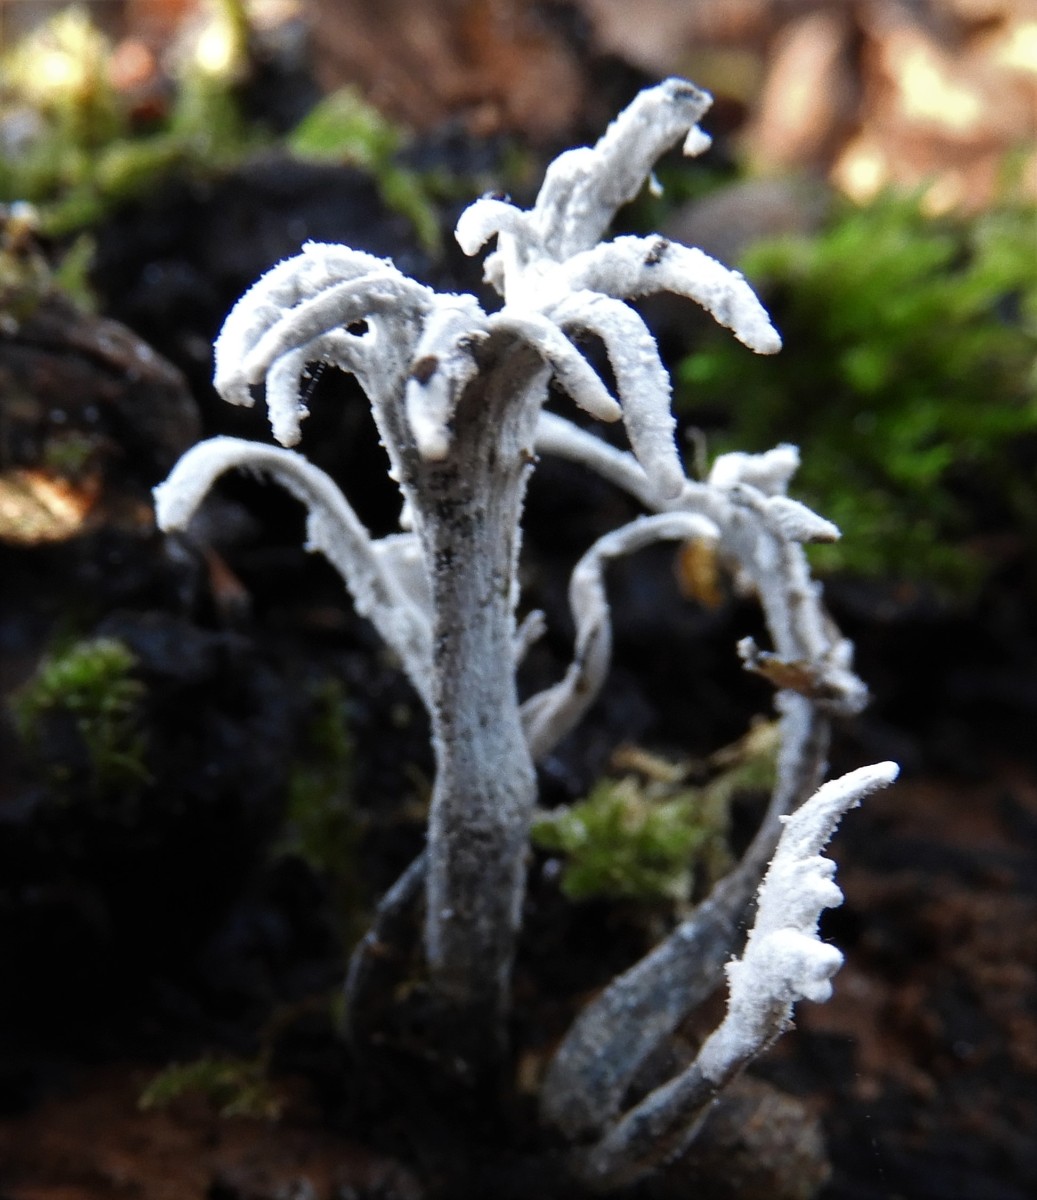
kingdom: Fungi
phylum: Ascomycota
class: Sordariomycetes
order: Xylariales
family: Xylariaceae
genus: Xylaria
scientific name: Xylaria hypoxylon
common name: grenet stødsvamp
